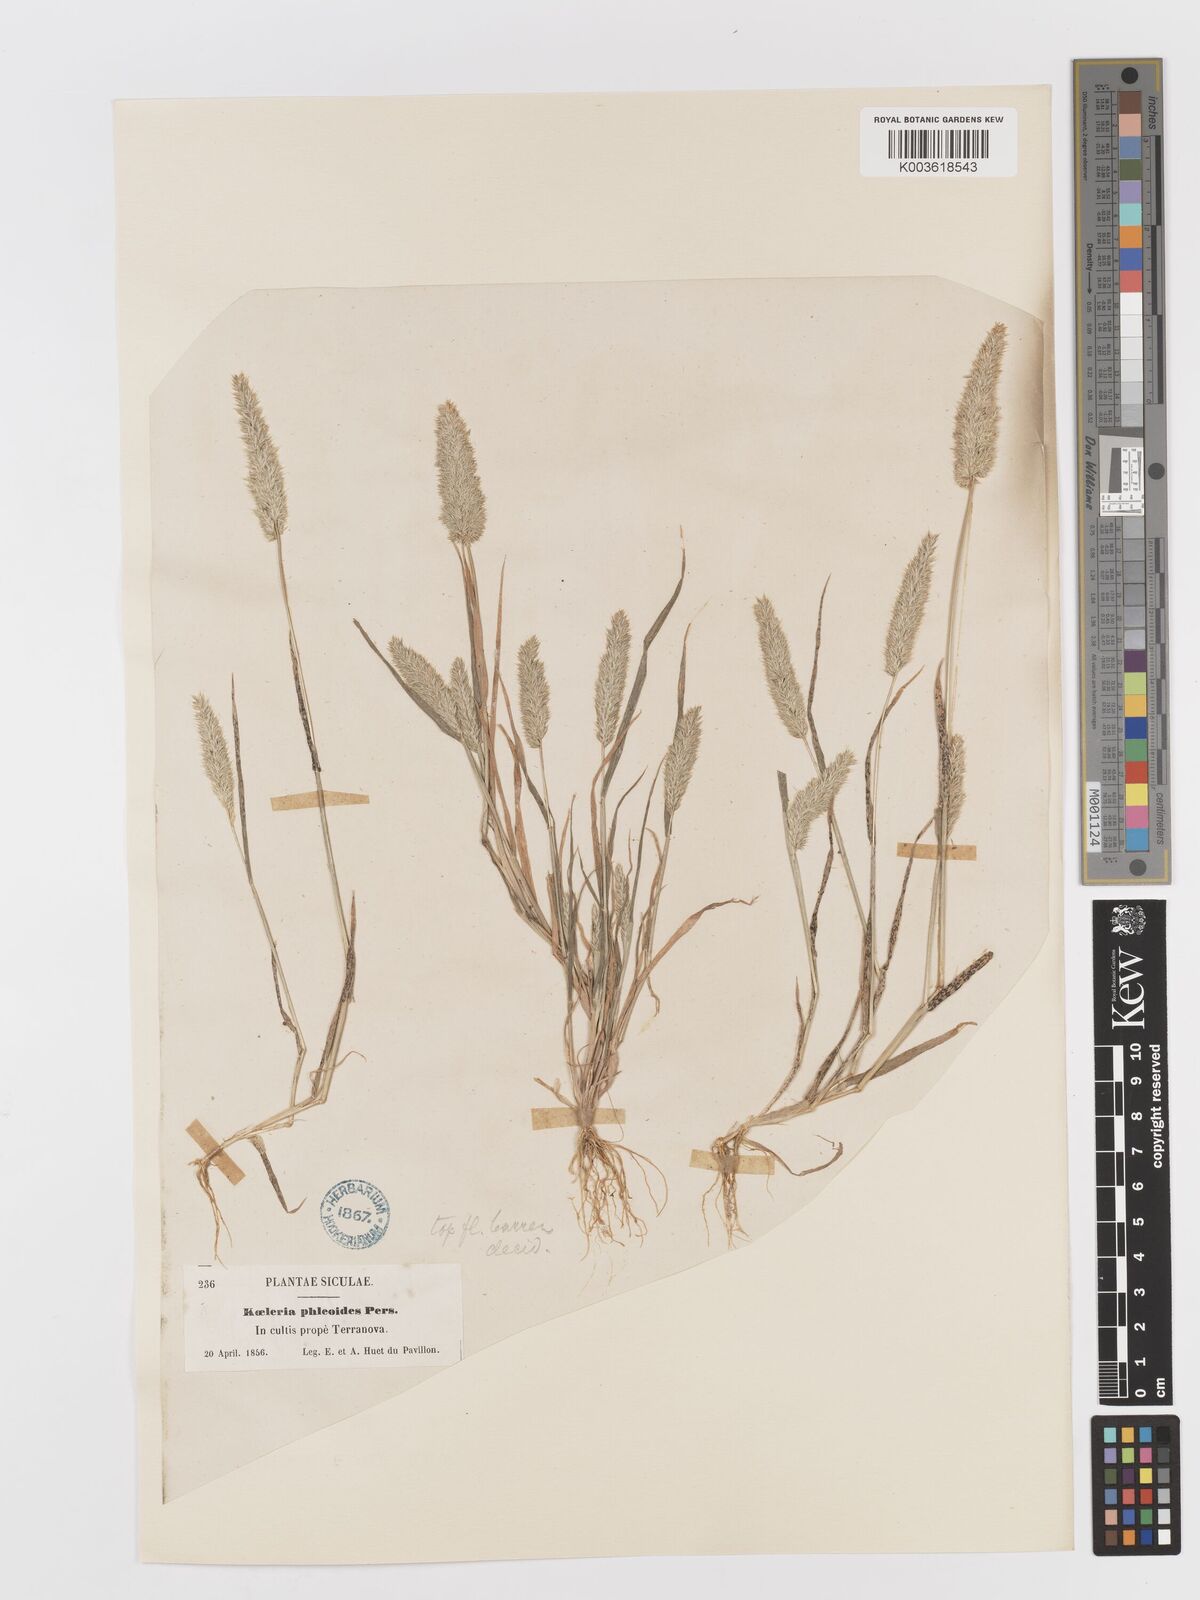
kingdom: Plantae
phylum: Tracheophyta
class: Liliopsida
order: Poales
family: Poaceae
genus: Rostraria
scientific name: Rostraria cristata
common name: Mediterranean hair-grass
